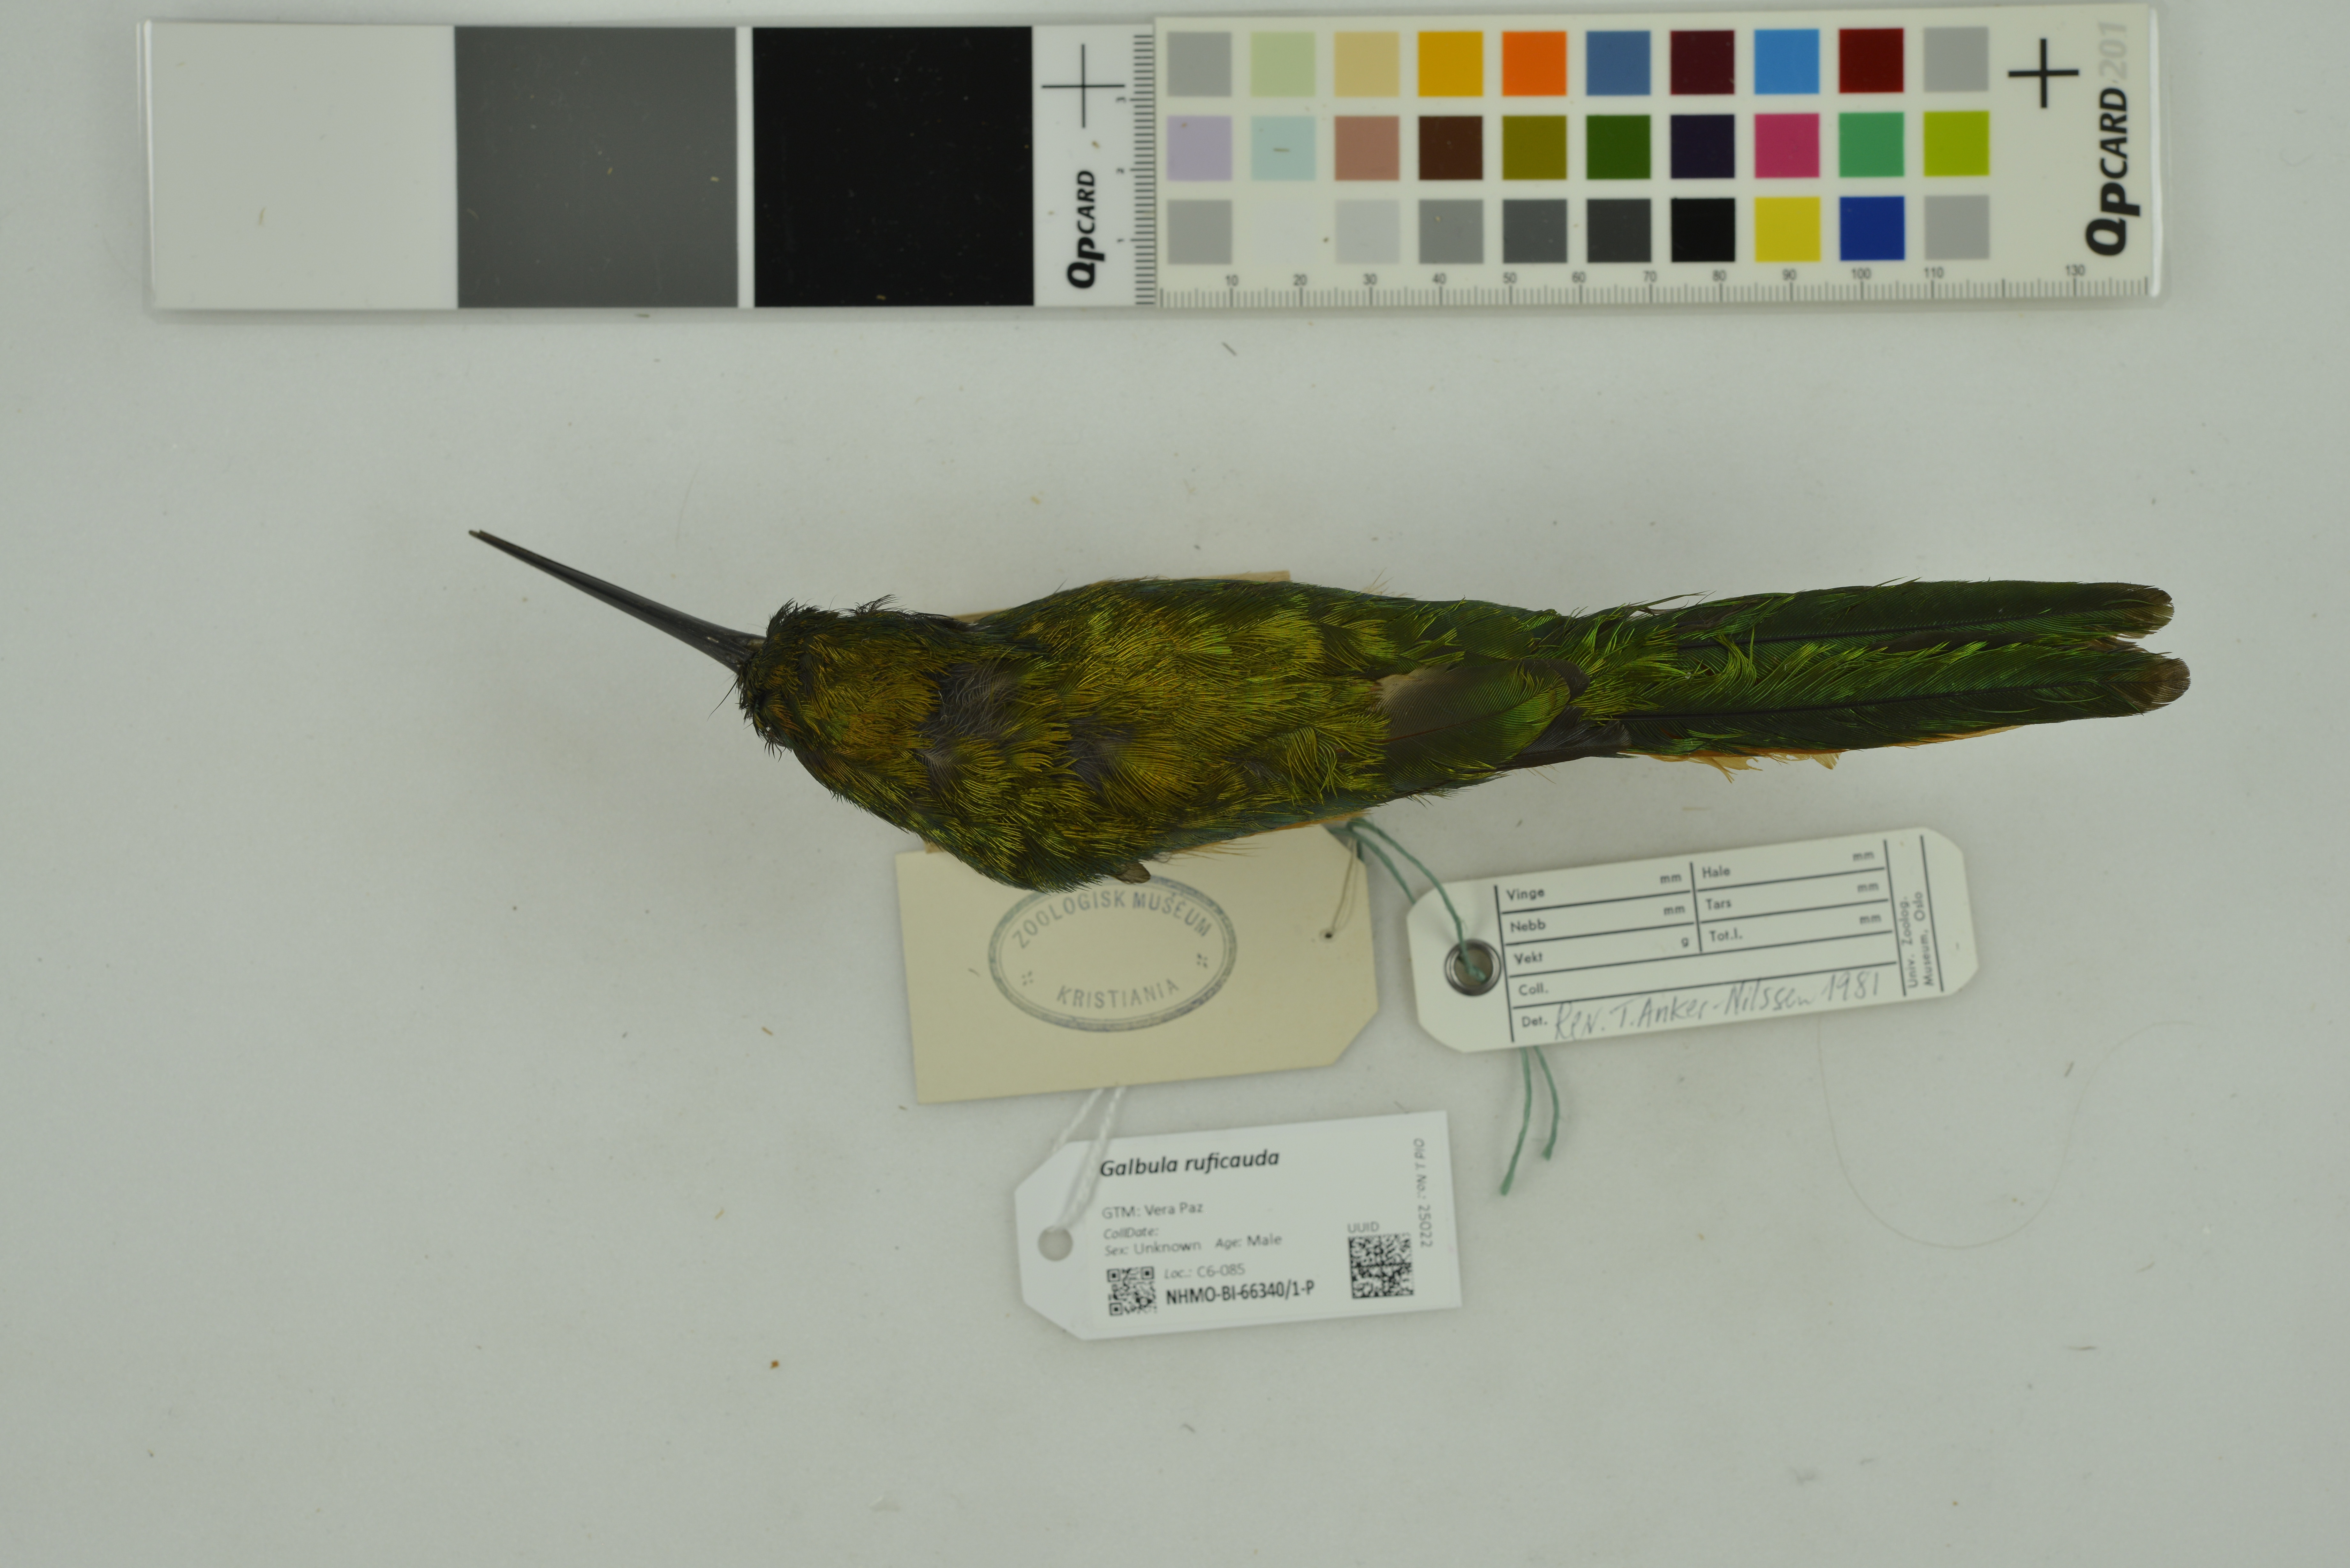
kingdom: Animalia
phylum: Chordata
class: Aves
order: Piciformes
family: Galbulidae
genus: Galbula
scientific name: Galbula ruficauda
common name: Rufous-tailed jacamar
